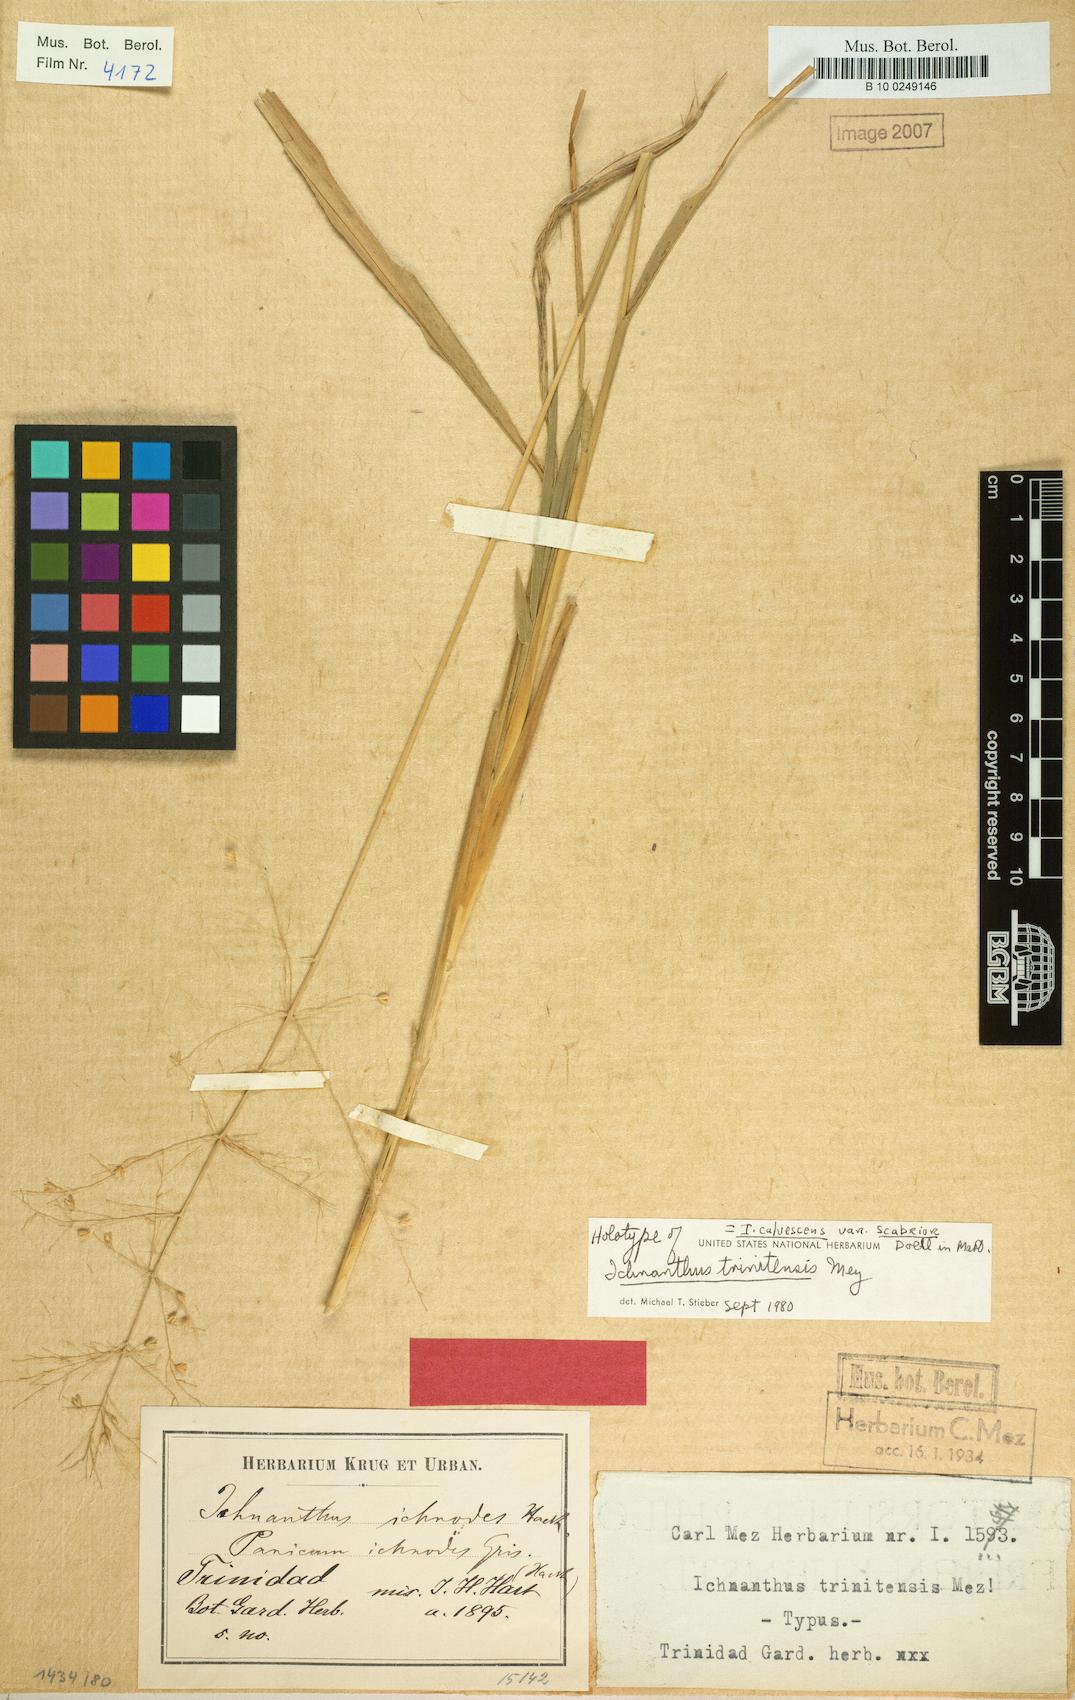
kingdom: Plantae
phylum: Tracheophyta
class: Liliopsida
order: Poales
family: Poaceae
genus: Ichnanthus
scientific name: Ichnanthus calvescens
